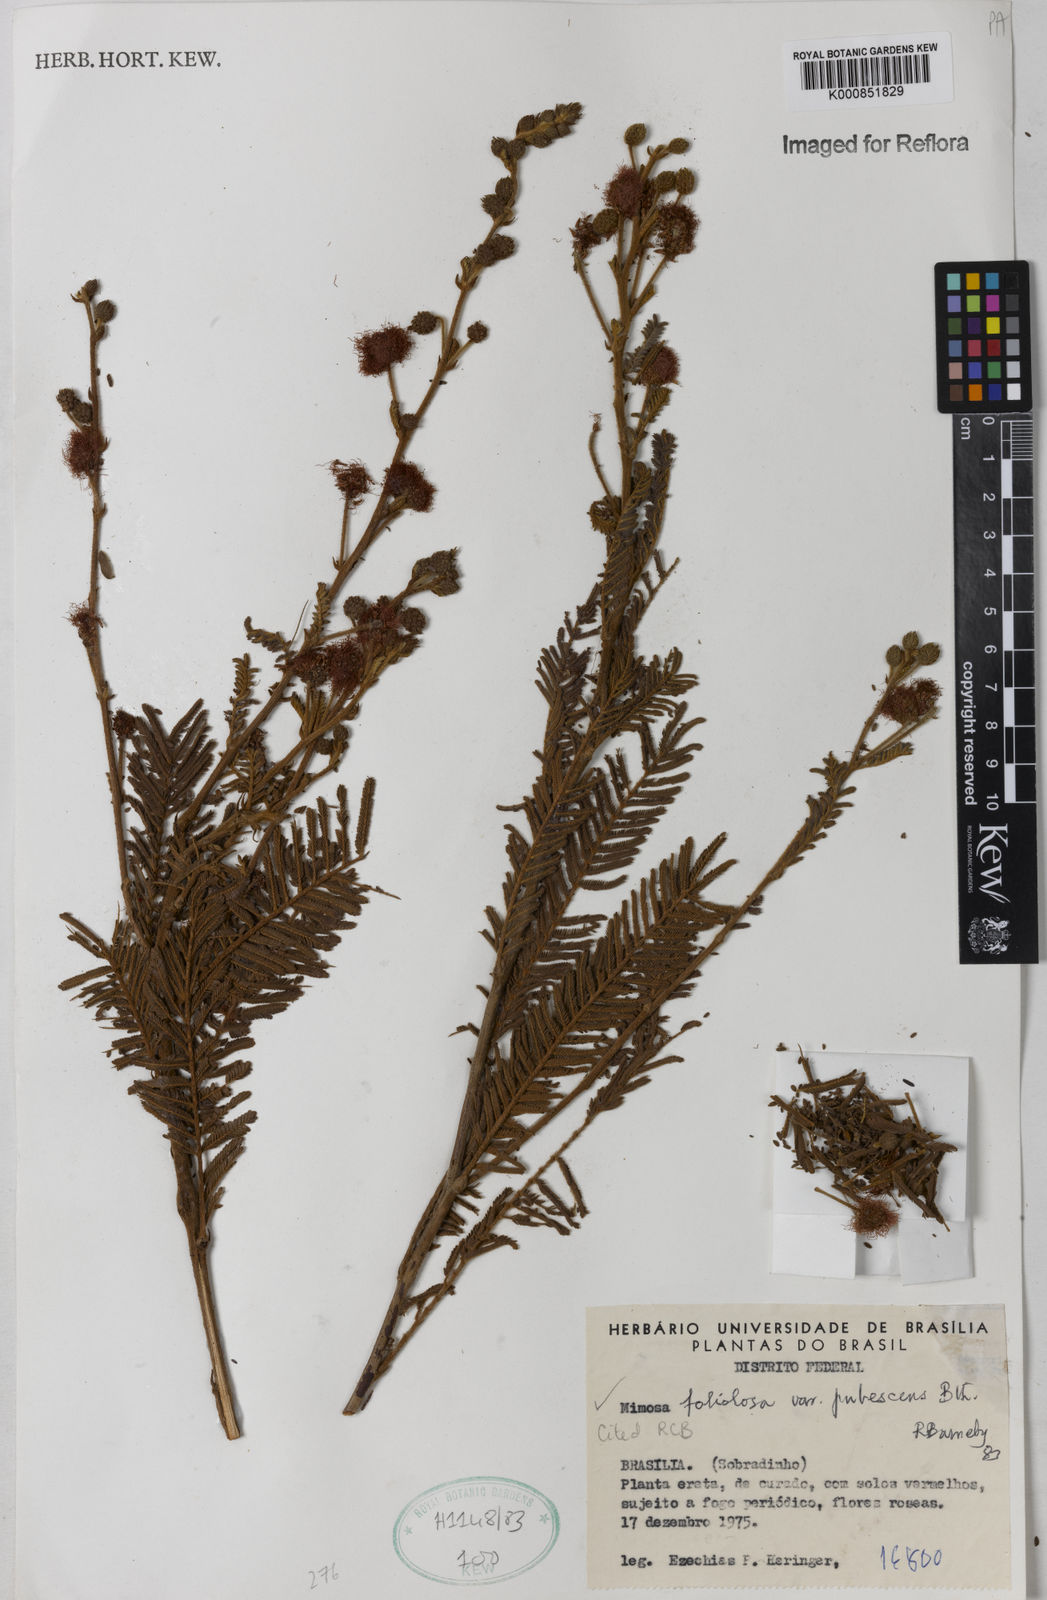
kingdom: Plantae
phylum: Tracheophyta
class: Magnoliopsida
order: Fabales
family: Fabaceae
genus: Mimosa
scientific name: Mimosa foliolosa
